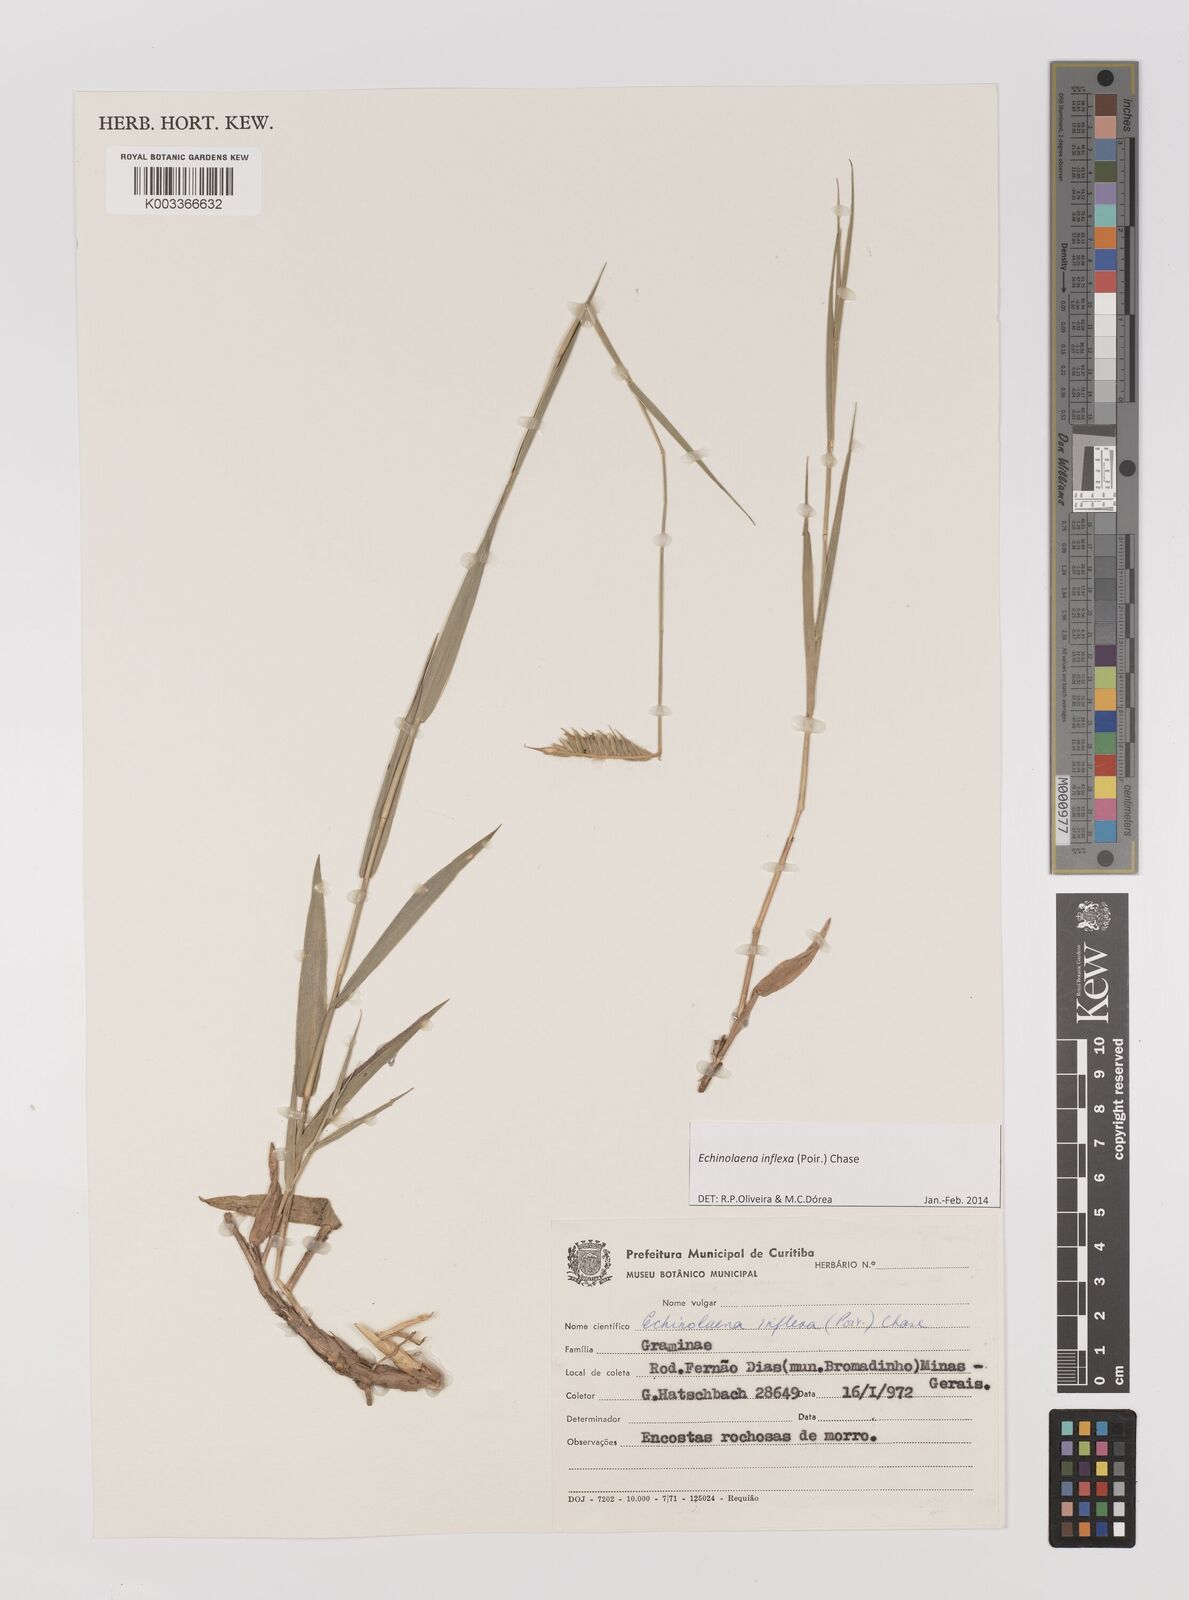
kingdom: Plantae
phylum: Tracheophyta
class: Liliopsida
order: Poales
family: Poaceae
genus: Echinolaena
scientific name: Echinolaena inflexa
